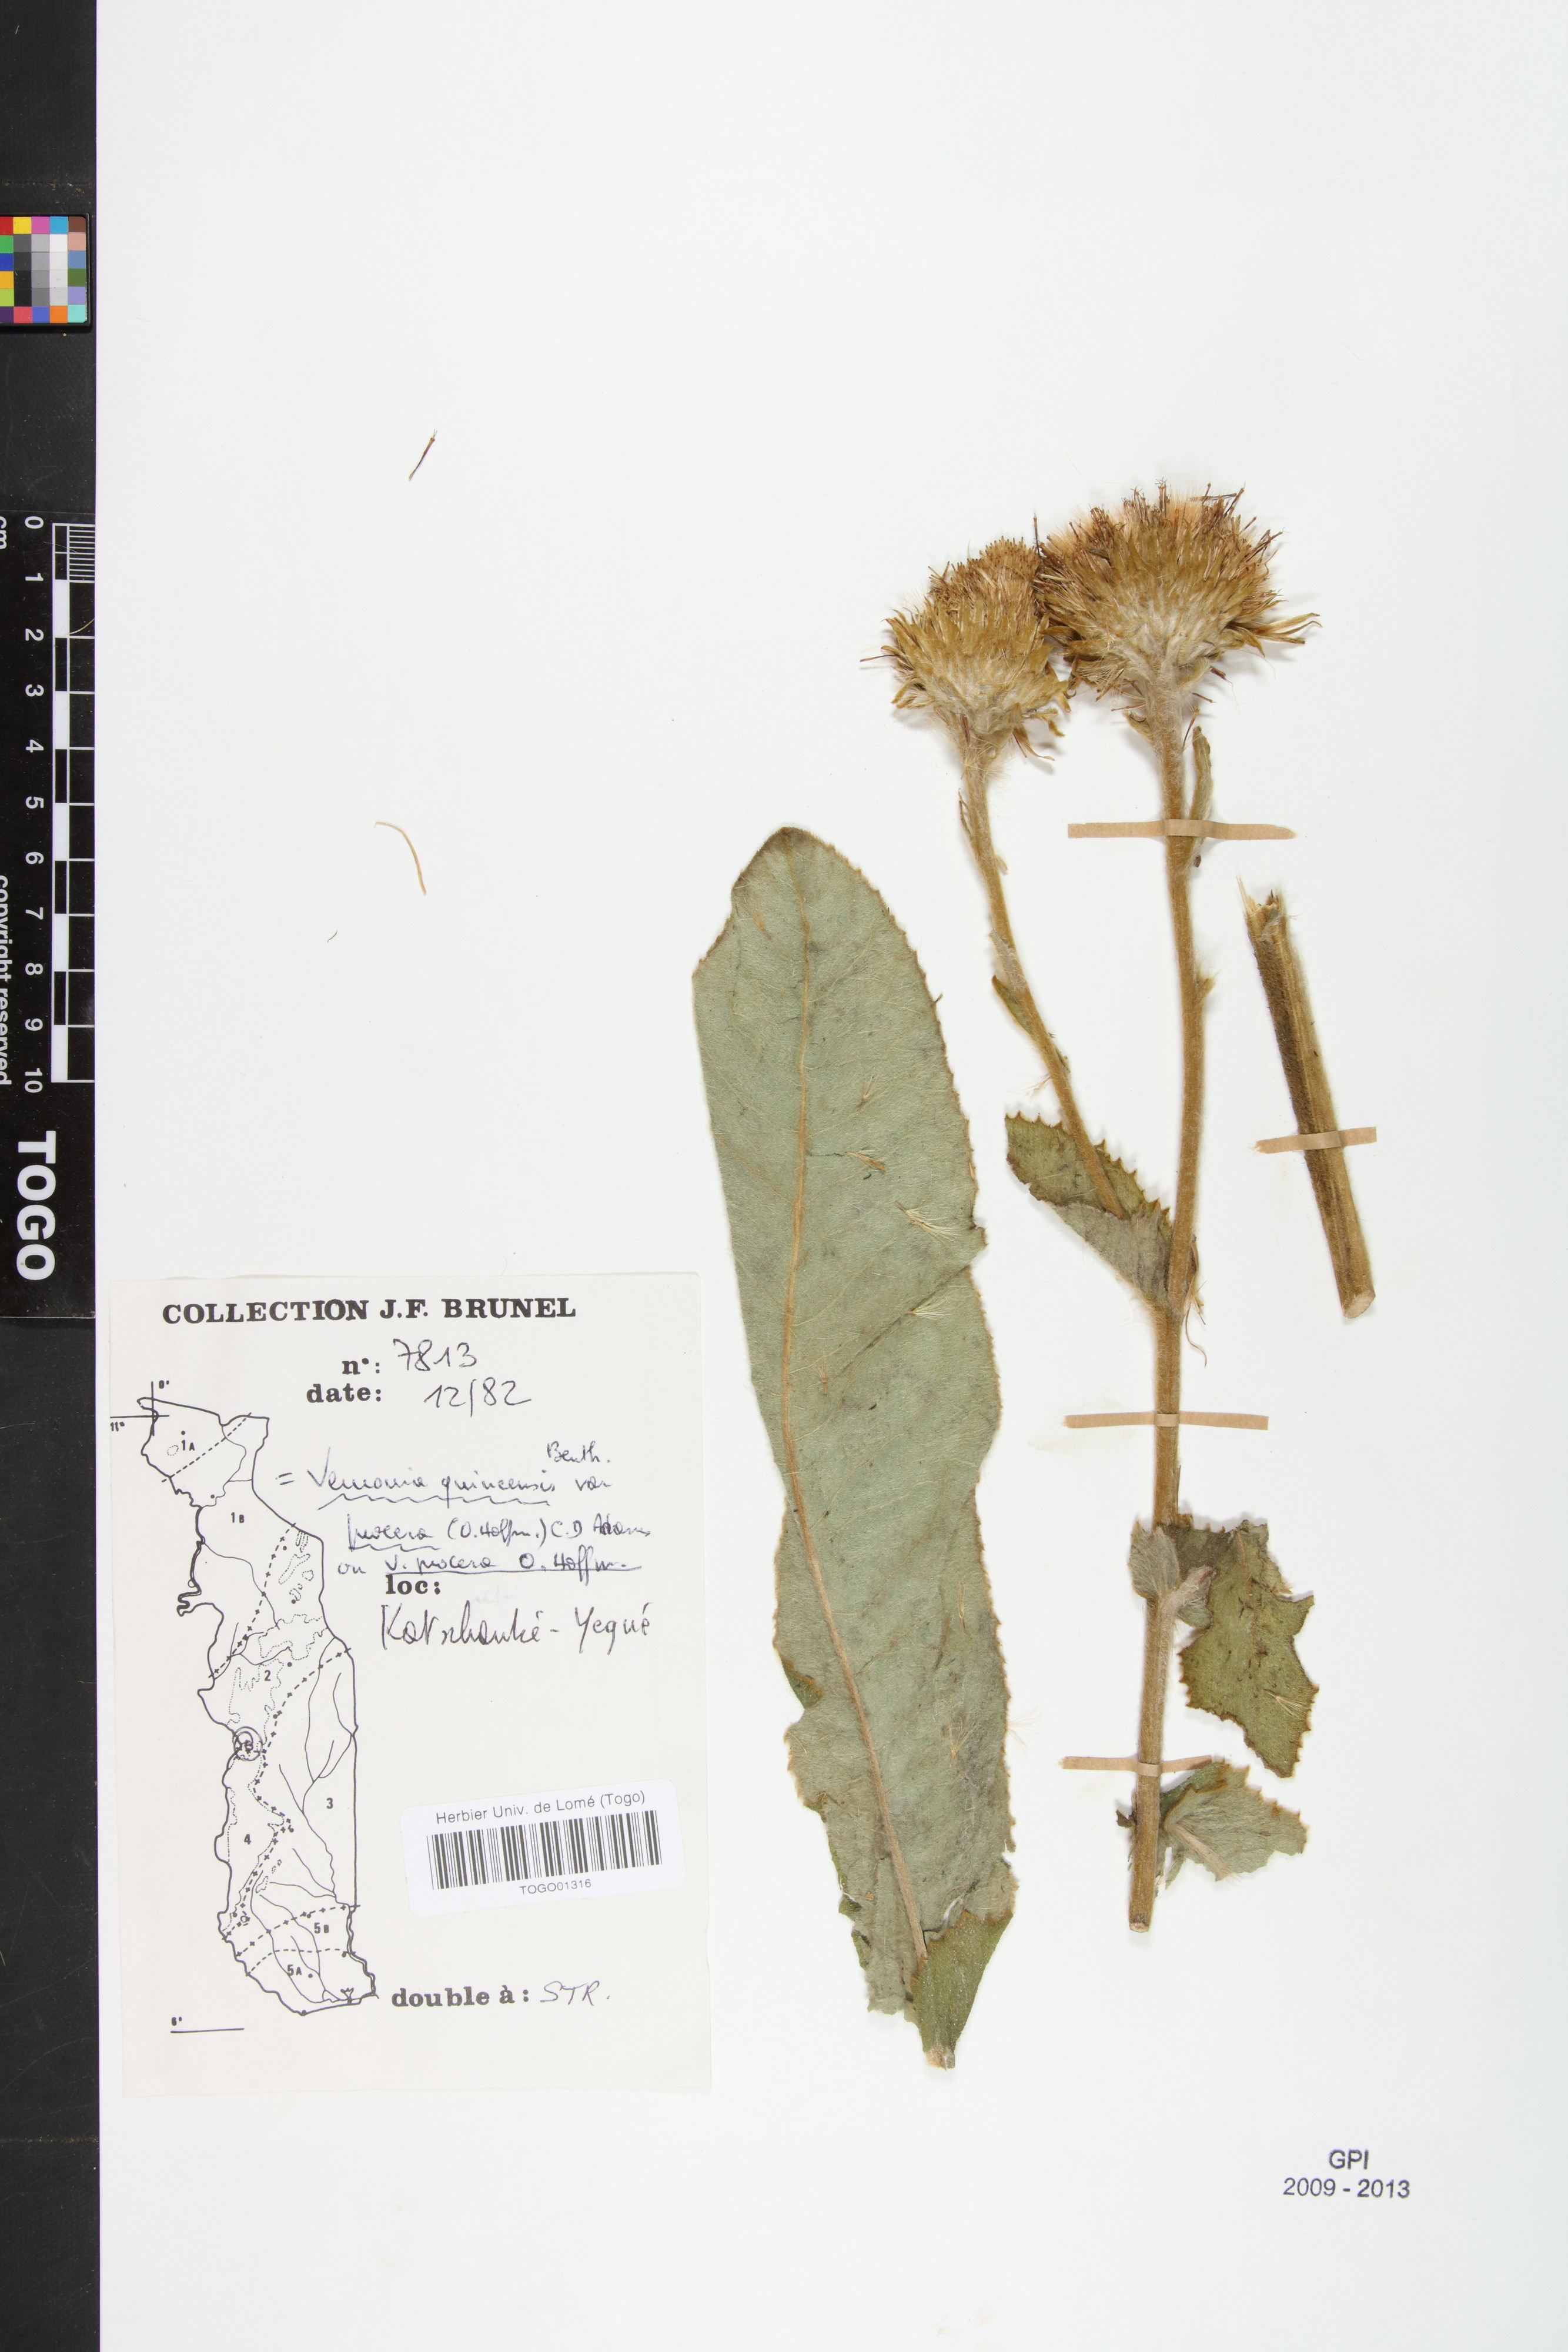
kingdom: Plantae
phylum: Tracheophyta
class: Magnoliopsida
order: Asterales
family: Asteraceae
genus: Baccharoides
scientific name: Baccharoides guineensis
